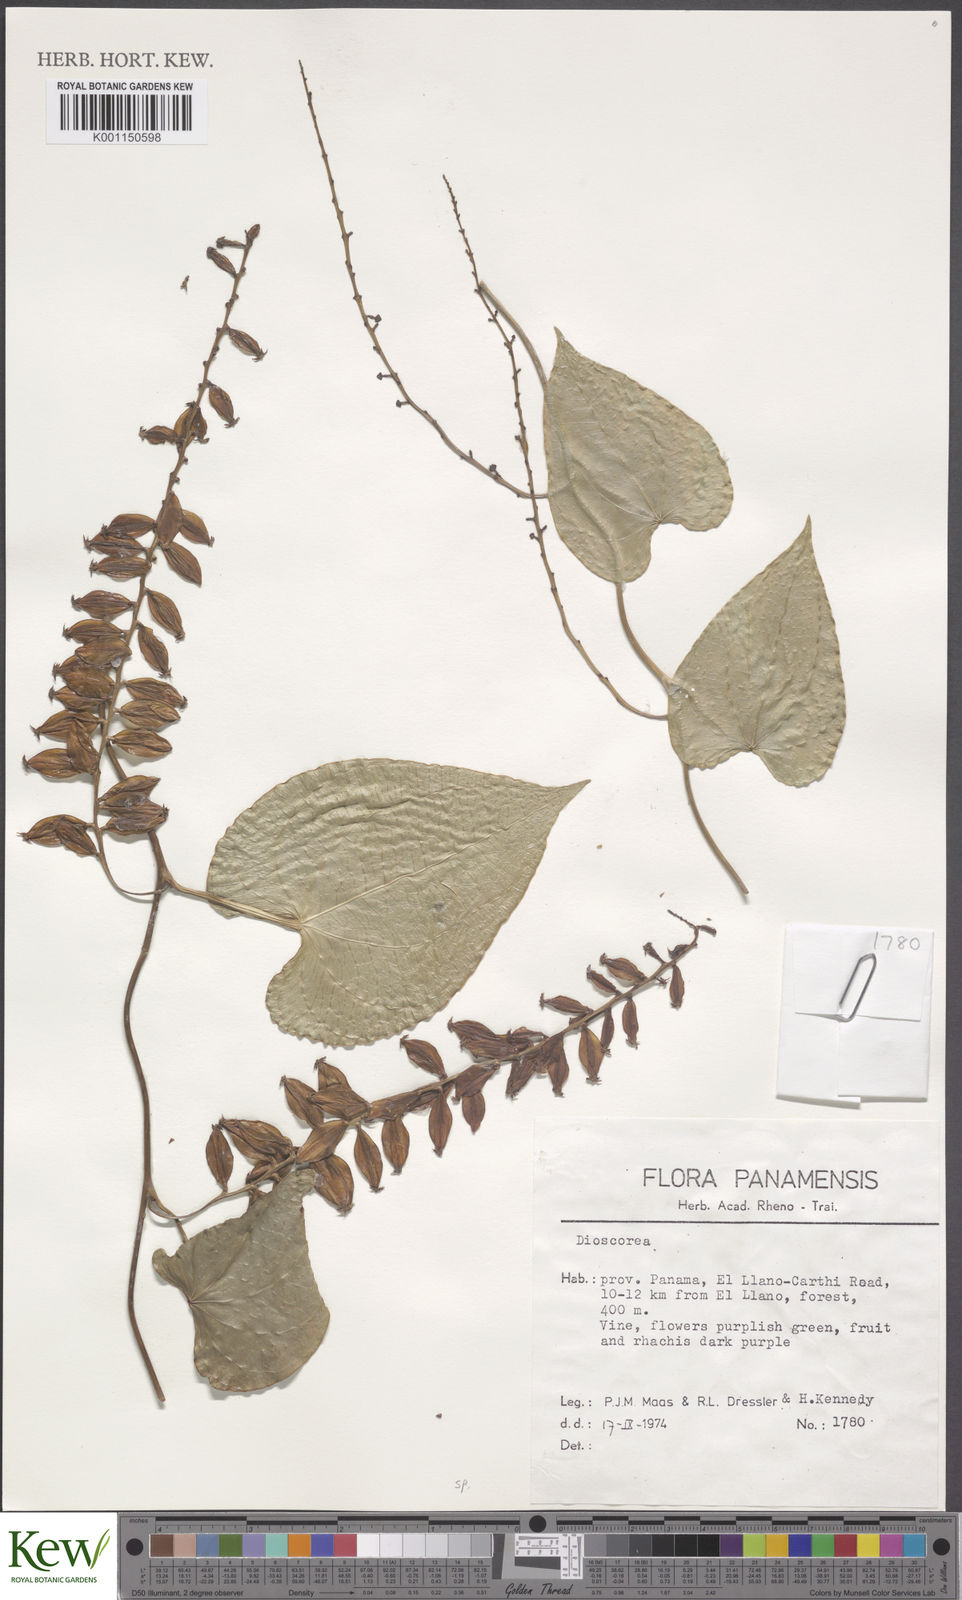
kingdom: Plantae
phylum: Tracheophyta
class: Liliopsida
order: Dioscoreales
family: Dioscoreaceae
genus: Dioscorea
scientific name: Dioscorea
